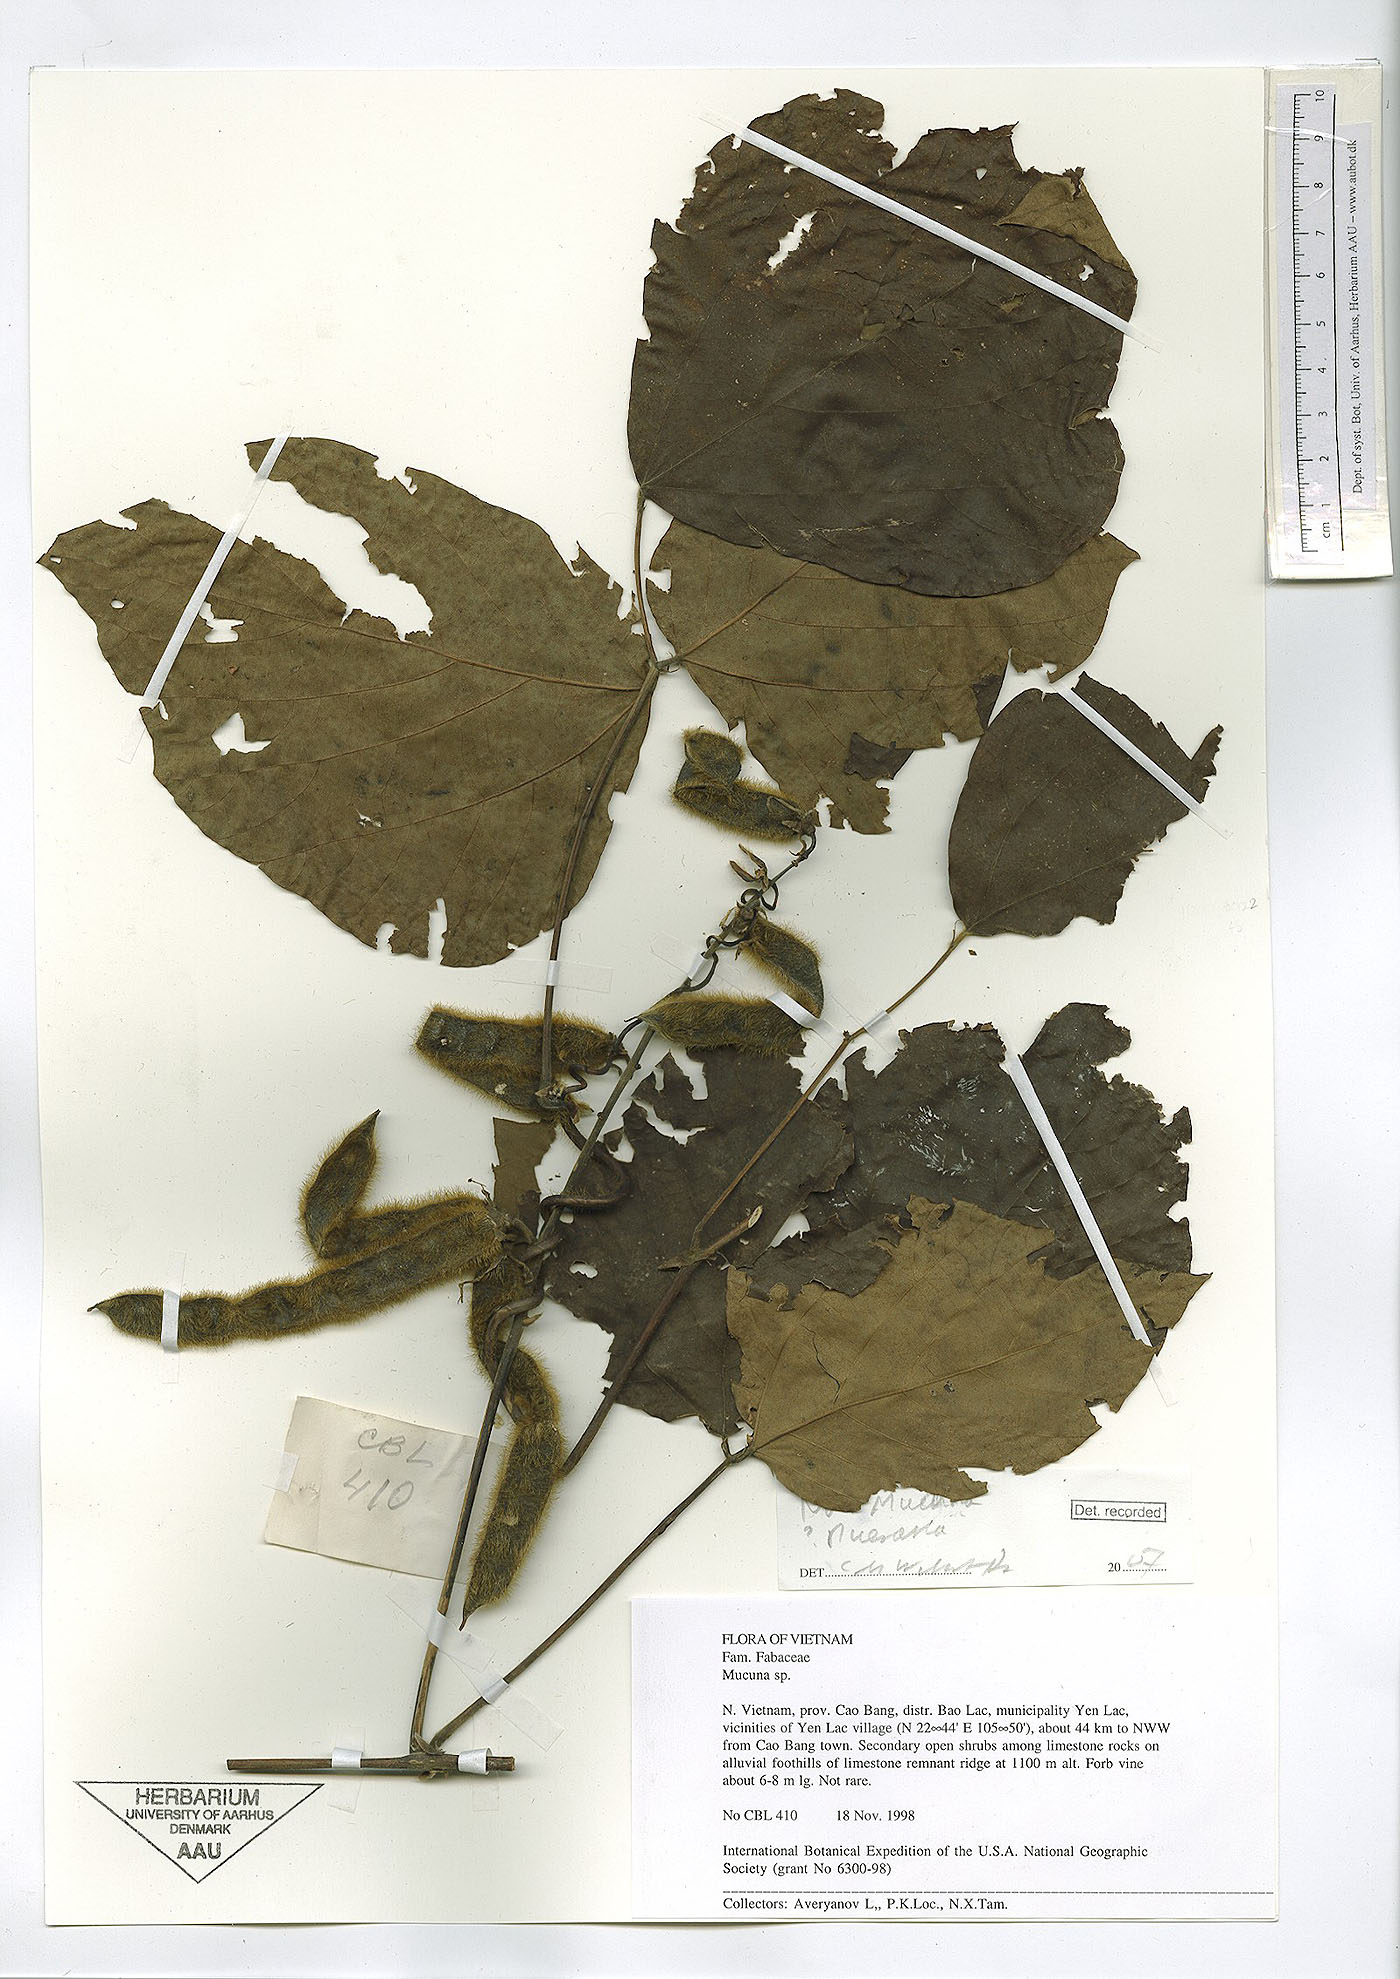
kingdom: Plantae
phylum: Tracheophyta
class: Magnoliopsida
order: Fabales
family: Fabaceae
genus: Pueraria
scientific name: Pueraria montana
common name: Kudzu
